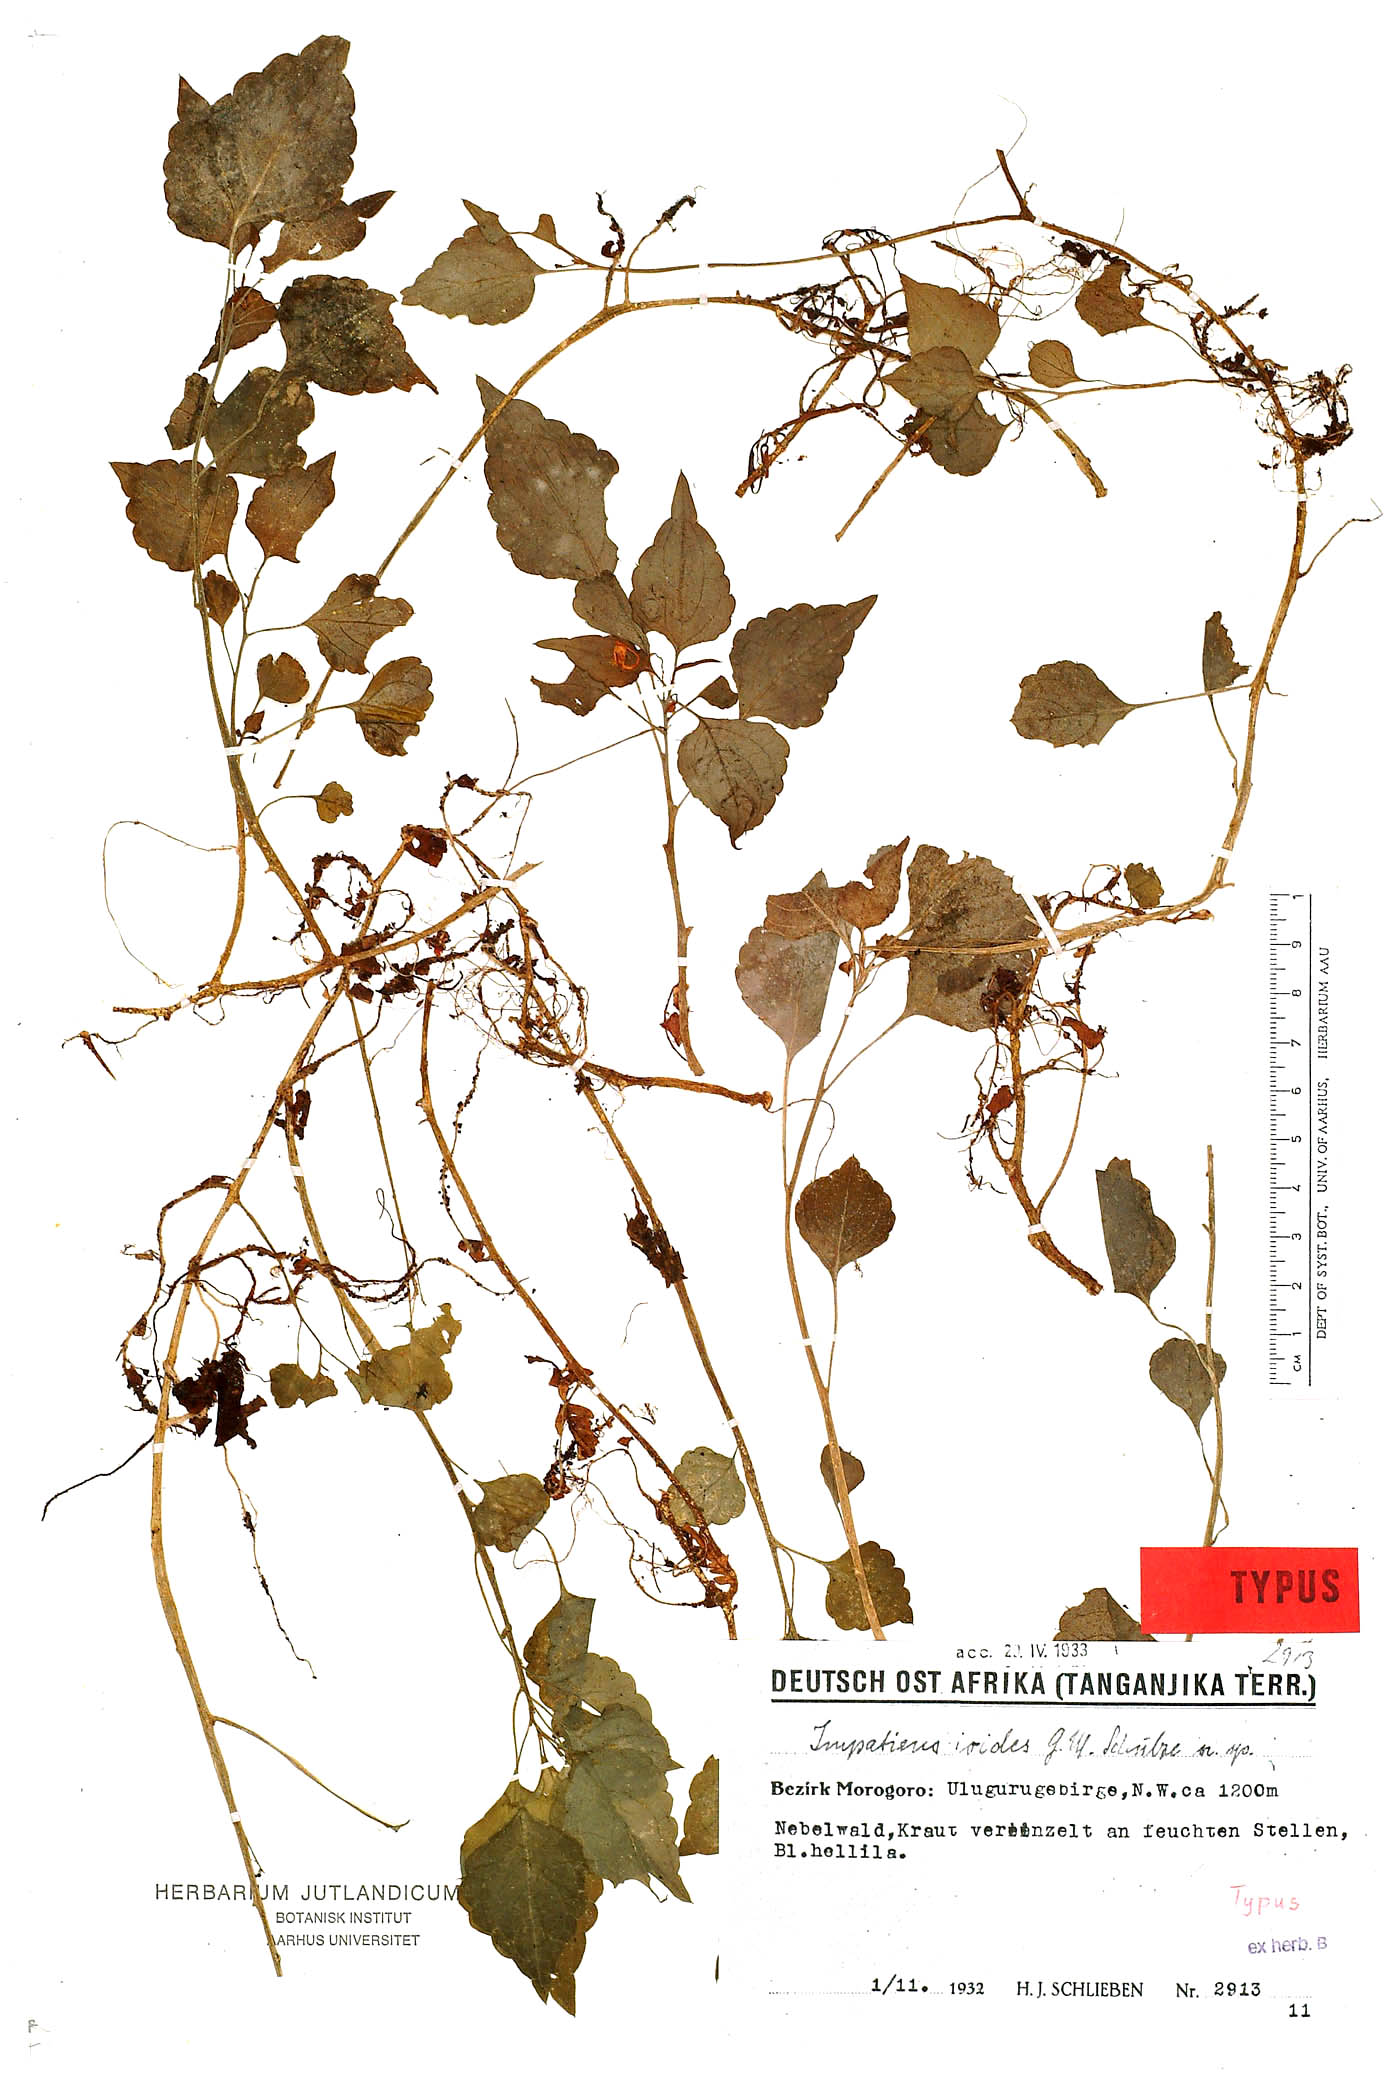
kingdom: Plantae
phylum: Tracheophyta
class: Magnoliopsida
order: Ericales
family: Balsaminaceae
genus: Impatiens
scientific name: Impatiens ioides
